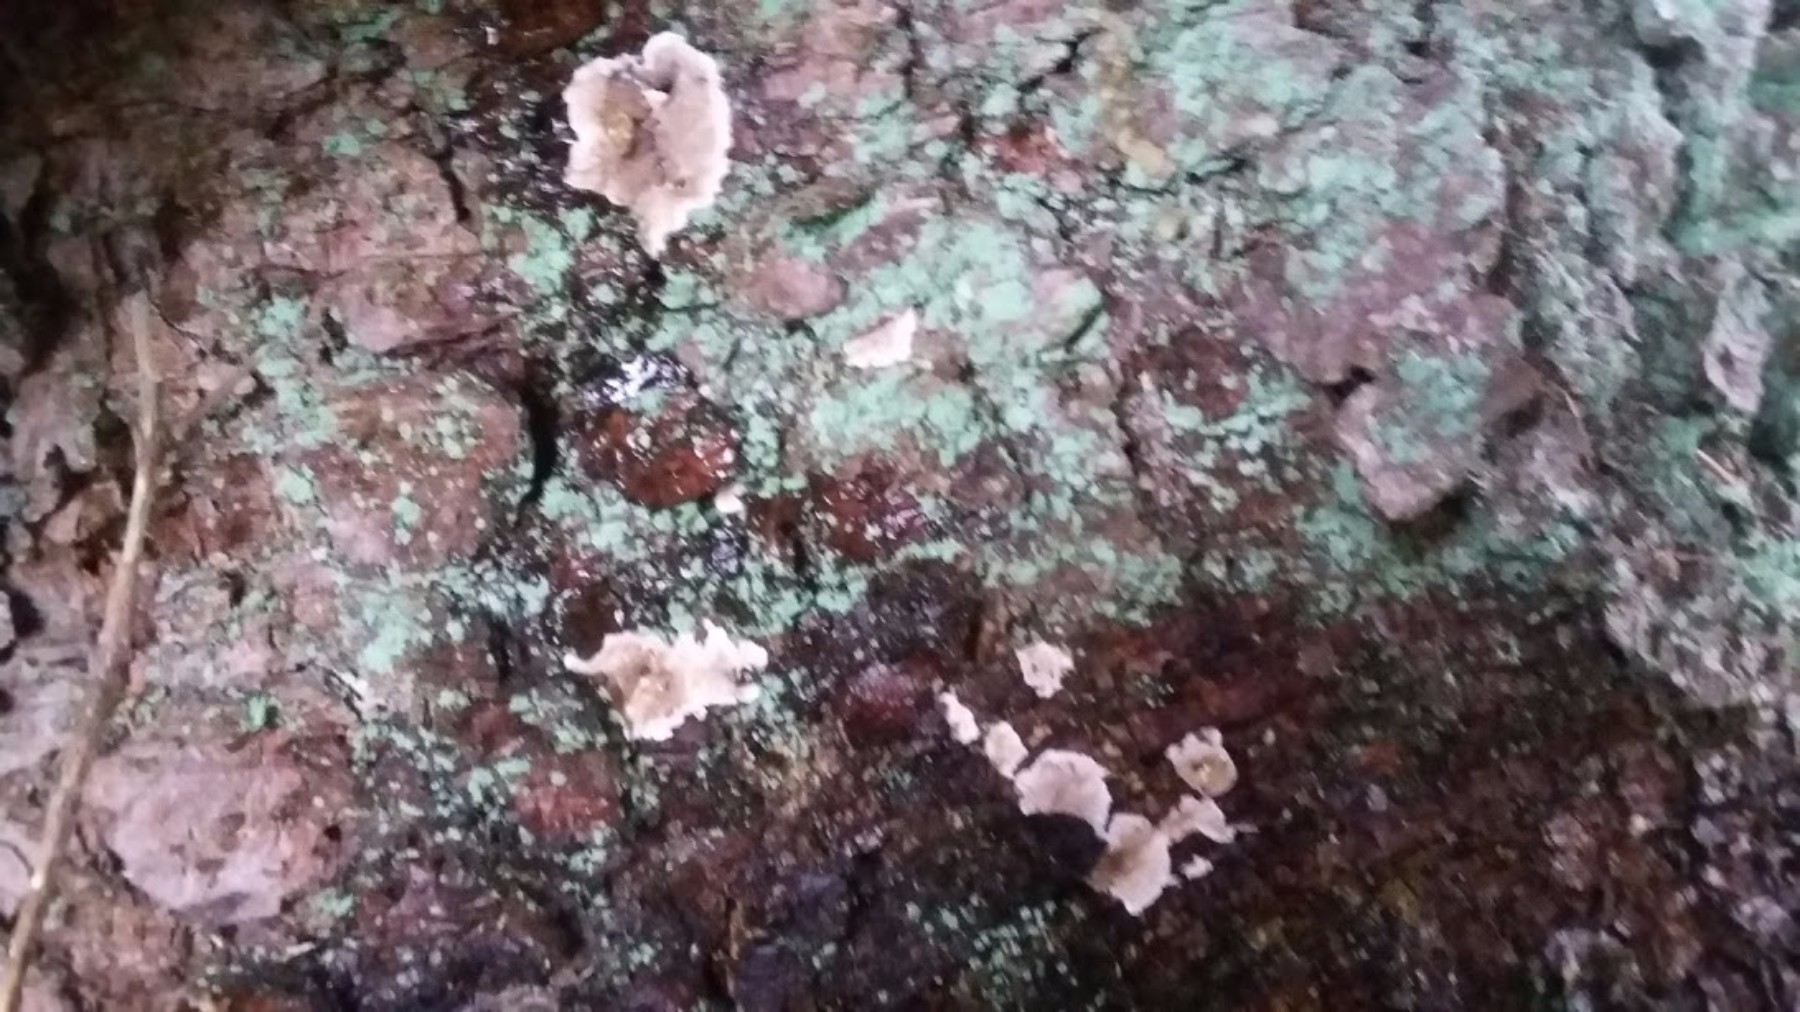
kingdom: Fungi
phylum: Basidiomycota
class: Agaricomycetes
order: Russulales
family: Echinodontiaceae
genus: Amylostereum
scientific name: Amylostereum chailletii
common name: gran-lædersvamp
